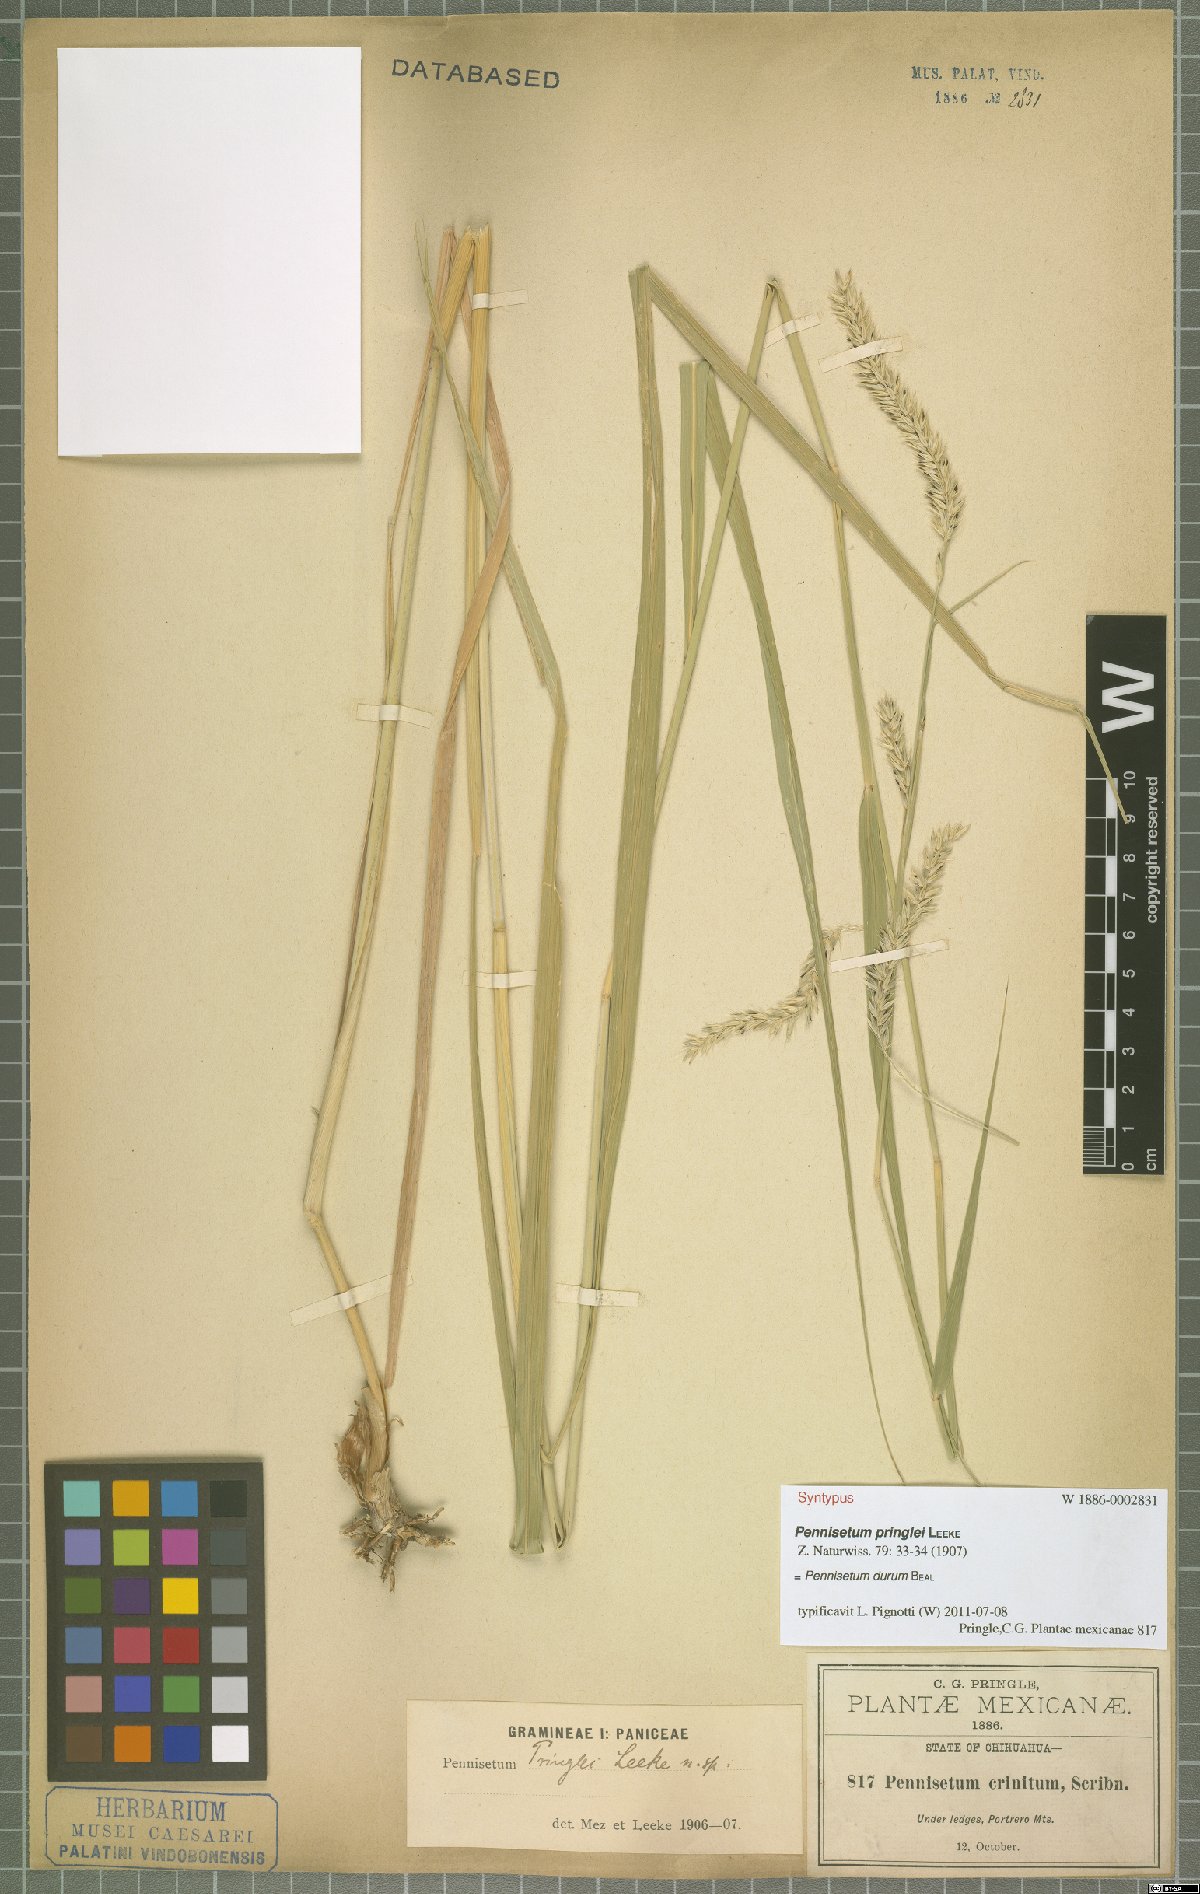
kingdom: Plantae
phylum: Tracheophyta
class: Liliopsida
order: Poales
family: Poaceae
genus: Cenchrus
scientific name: Cenchrus durus
